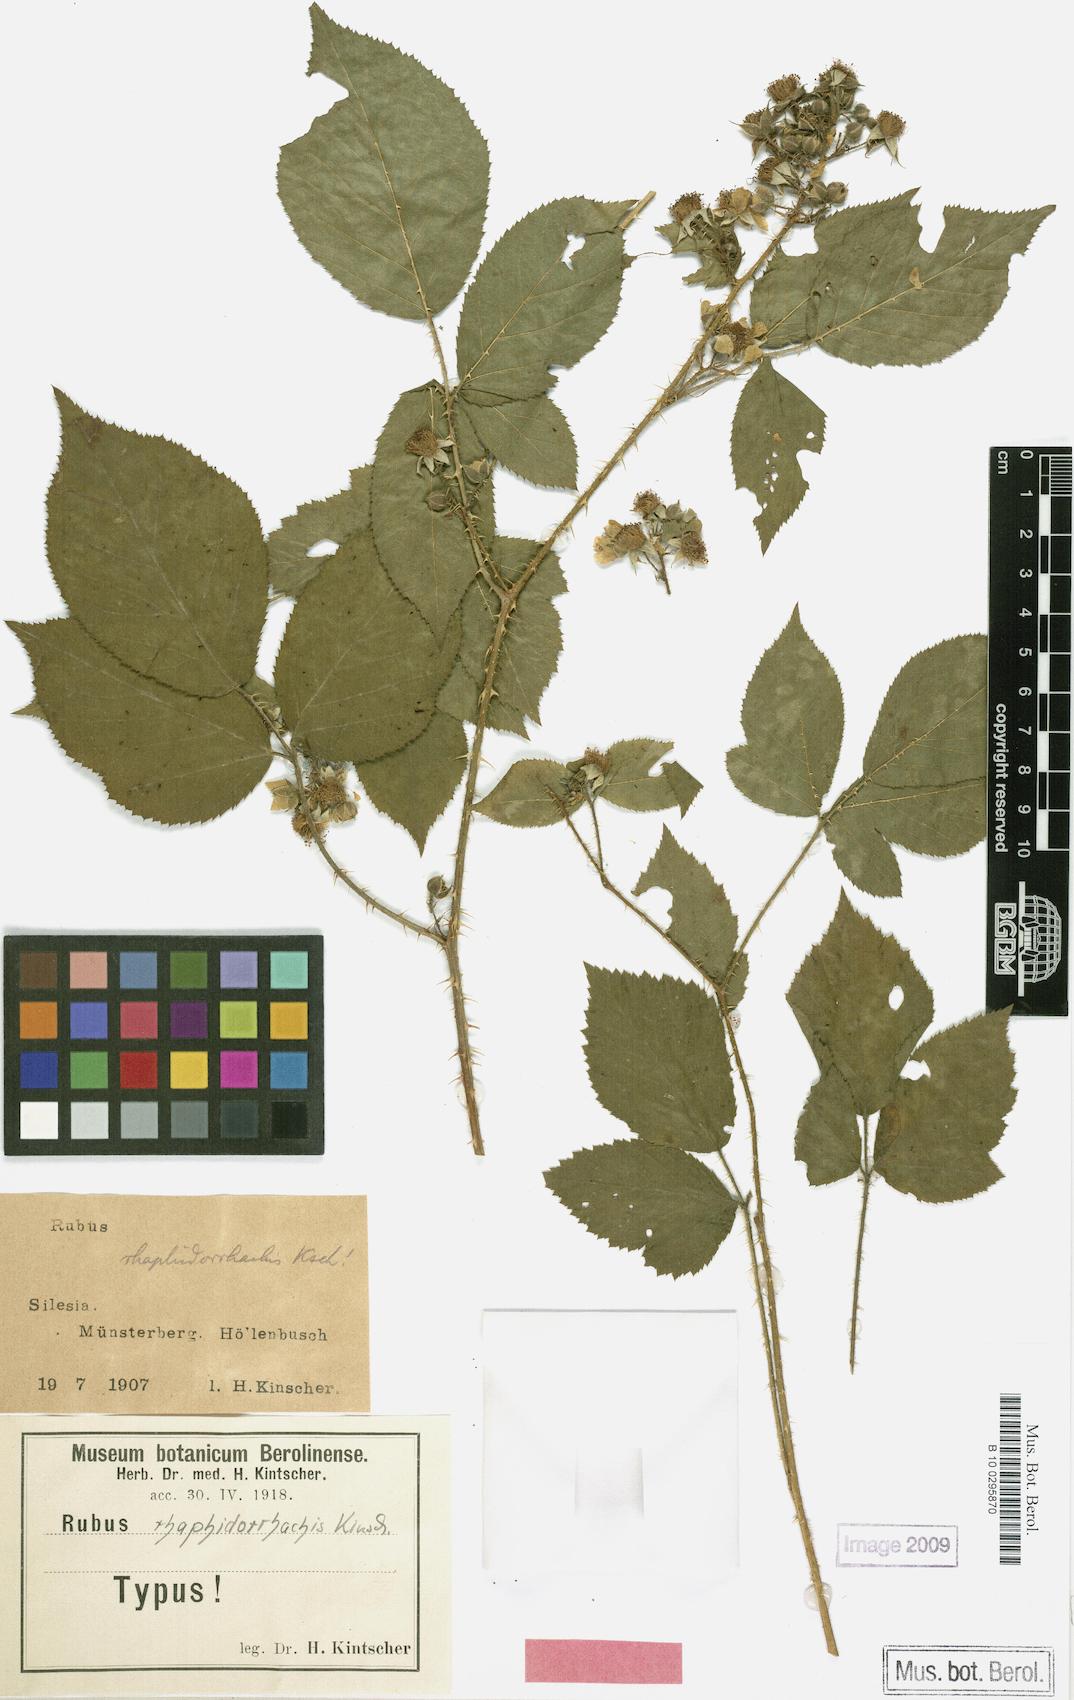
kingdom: Plantae
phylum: Tracheophyta
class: Magnoliopsida
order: Rosales
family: Rosaceae
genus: Rubus
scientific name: Rubus koehleri
